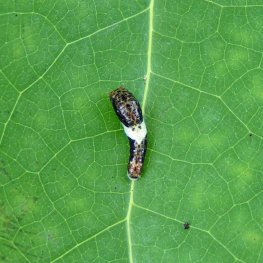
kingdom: Animalia
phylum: Arthropoda
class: Insecta
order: Lepidoptera
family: Papilionidae
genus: Pterourus
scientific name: Pterourus glaucus
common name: Eastern Tiger Swallowtail
